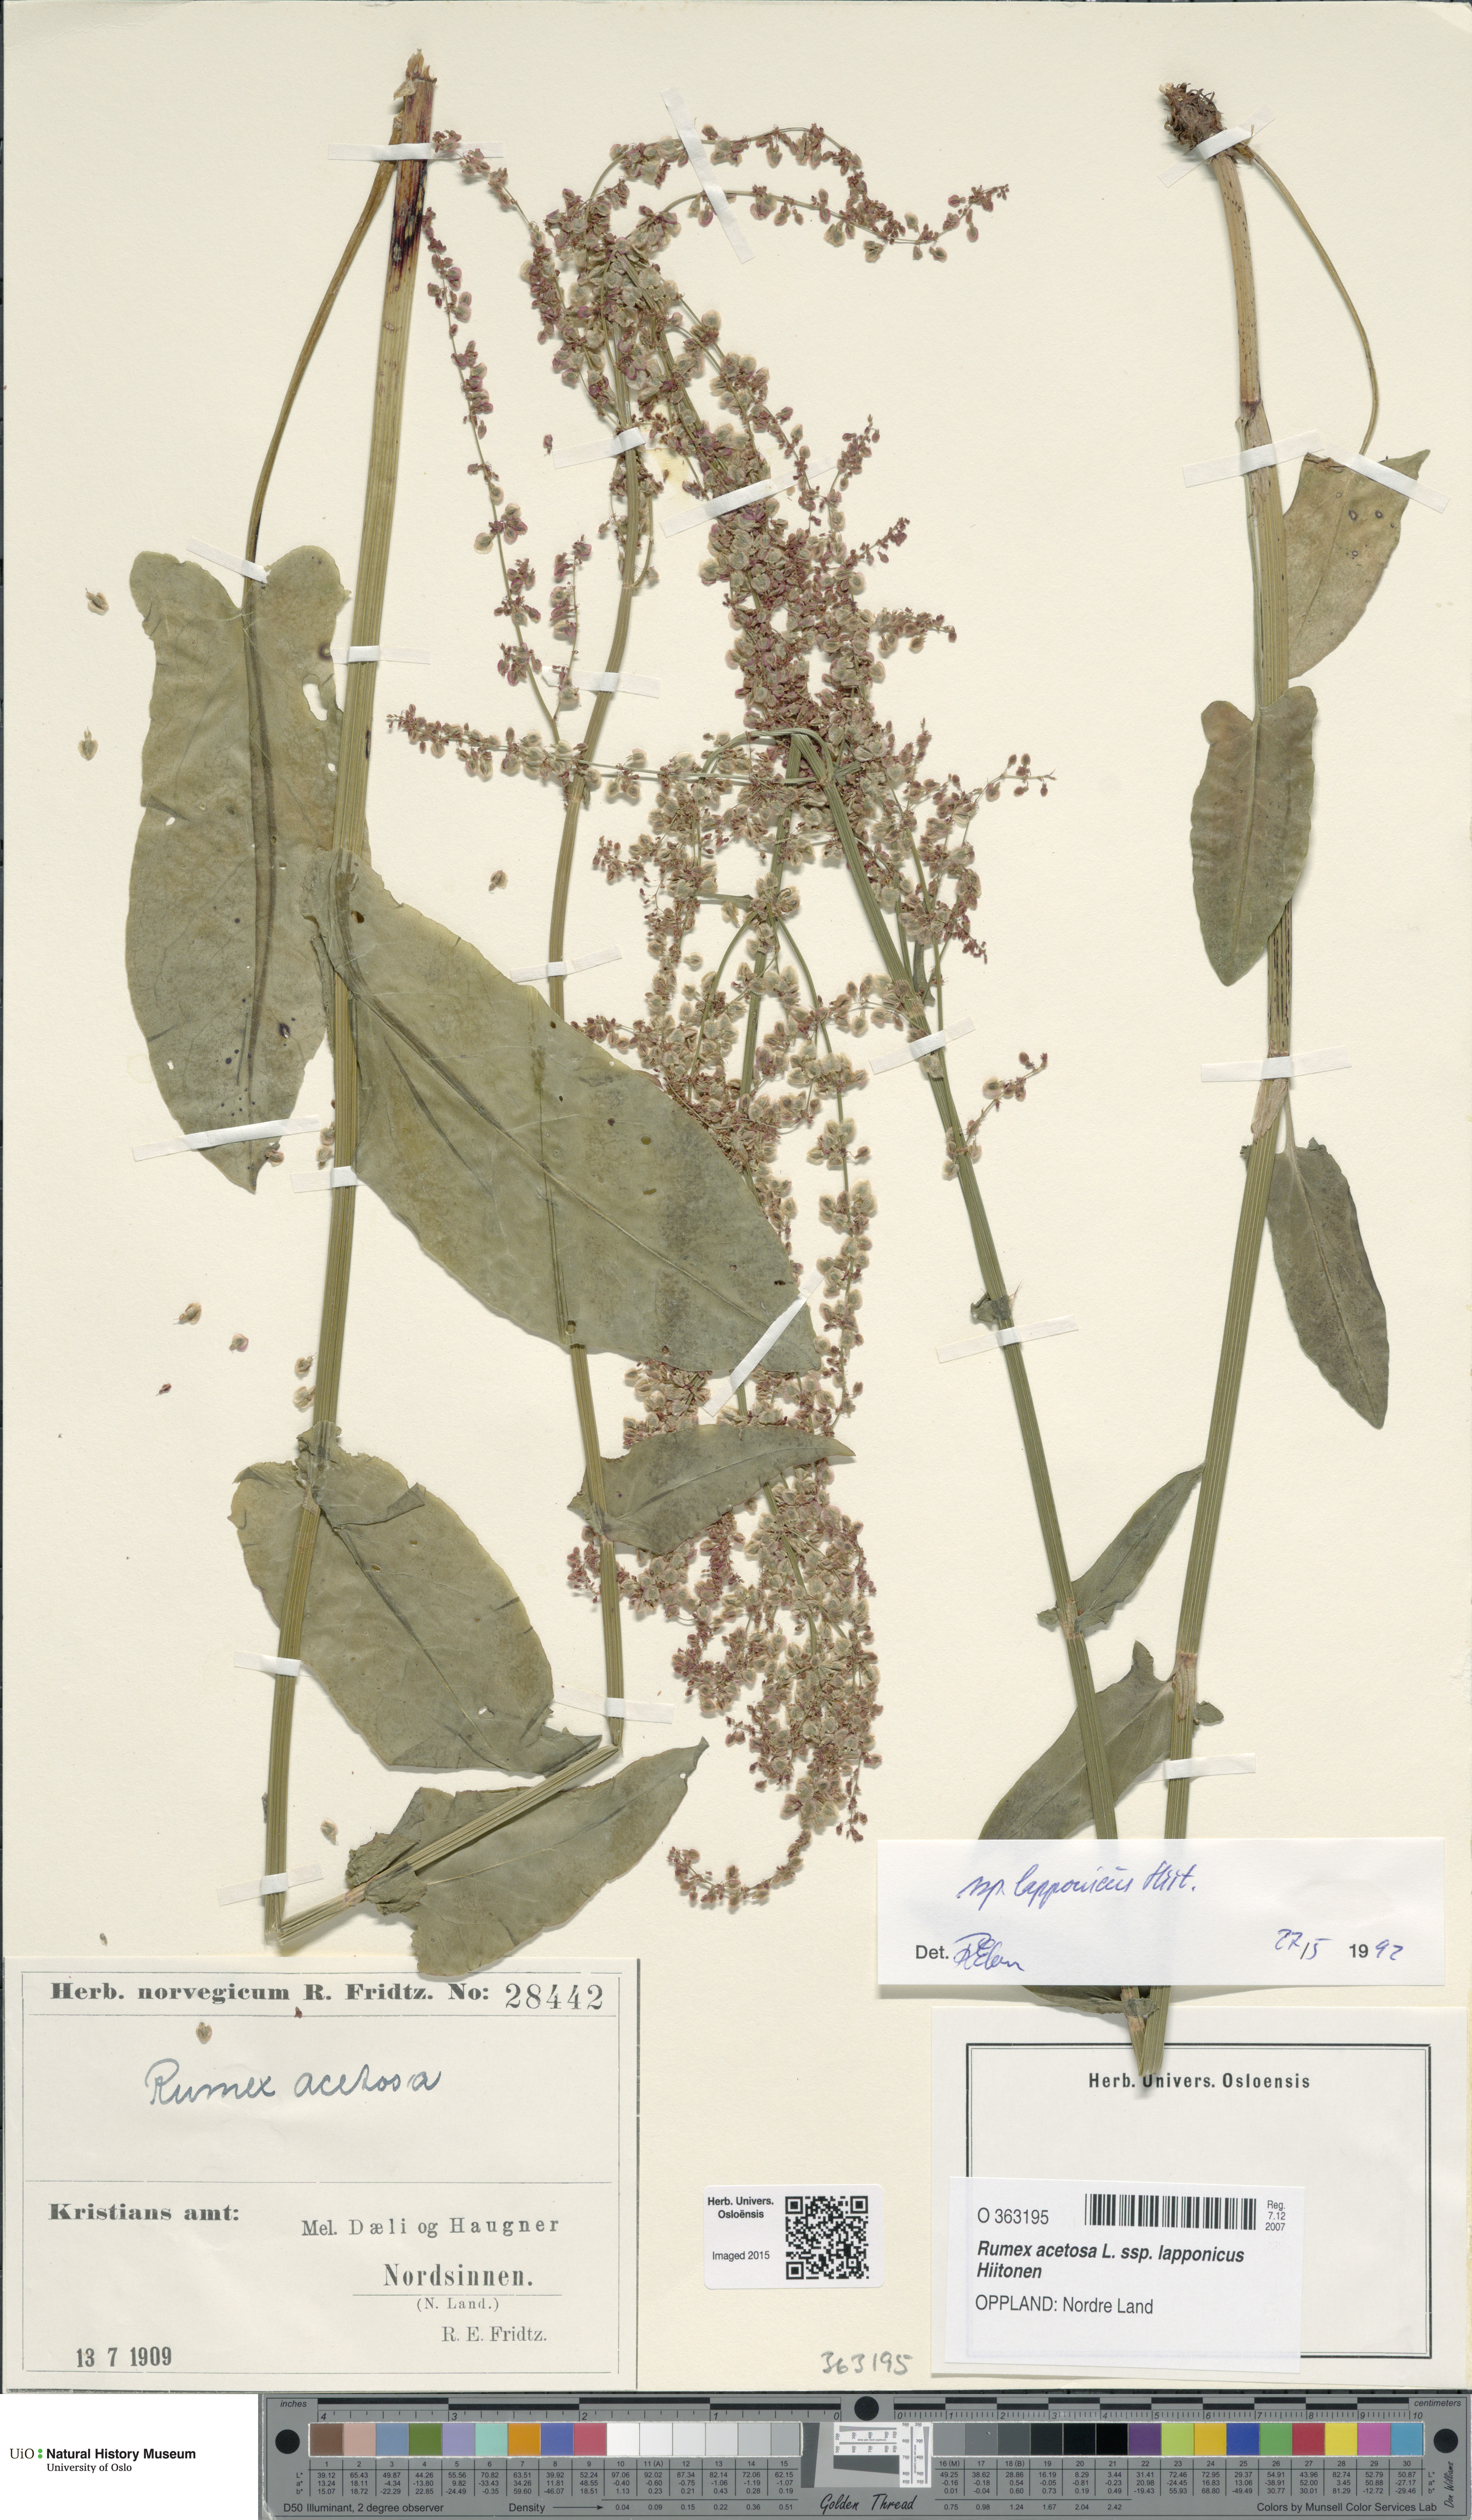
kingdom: Plantae
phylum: Tracheophyta
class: Magnoliopsida
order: Caryophyllales
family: Polygonaceae
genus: Rumex
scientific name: Rumex lapponicus
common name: Lapland mountain sorrel
